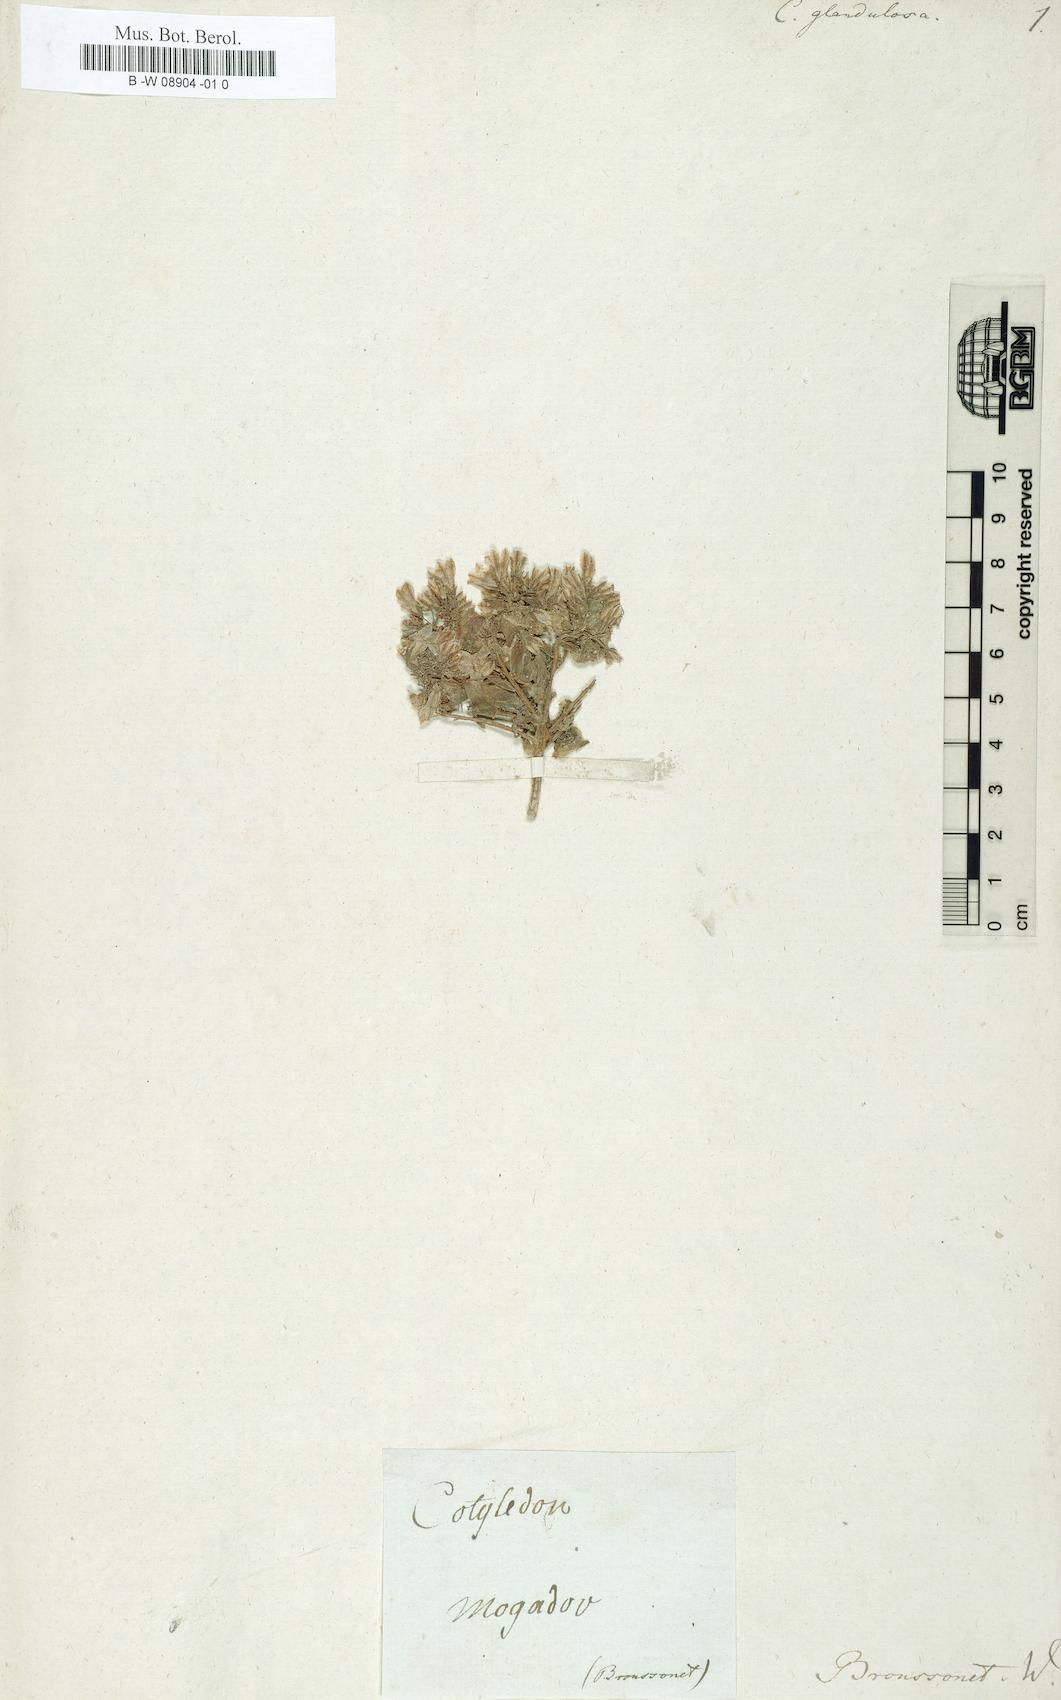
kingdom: Plantae
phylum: Tracheophyta
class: Magnoliopsida
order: Saxifragales
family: Crassulaceae
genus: Cotyledon
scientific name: Cotyledon papillaris
